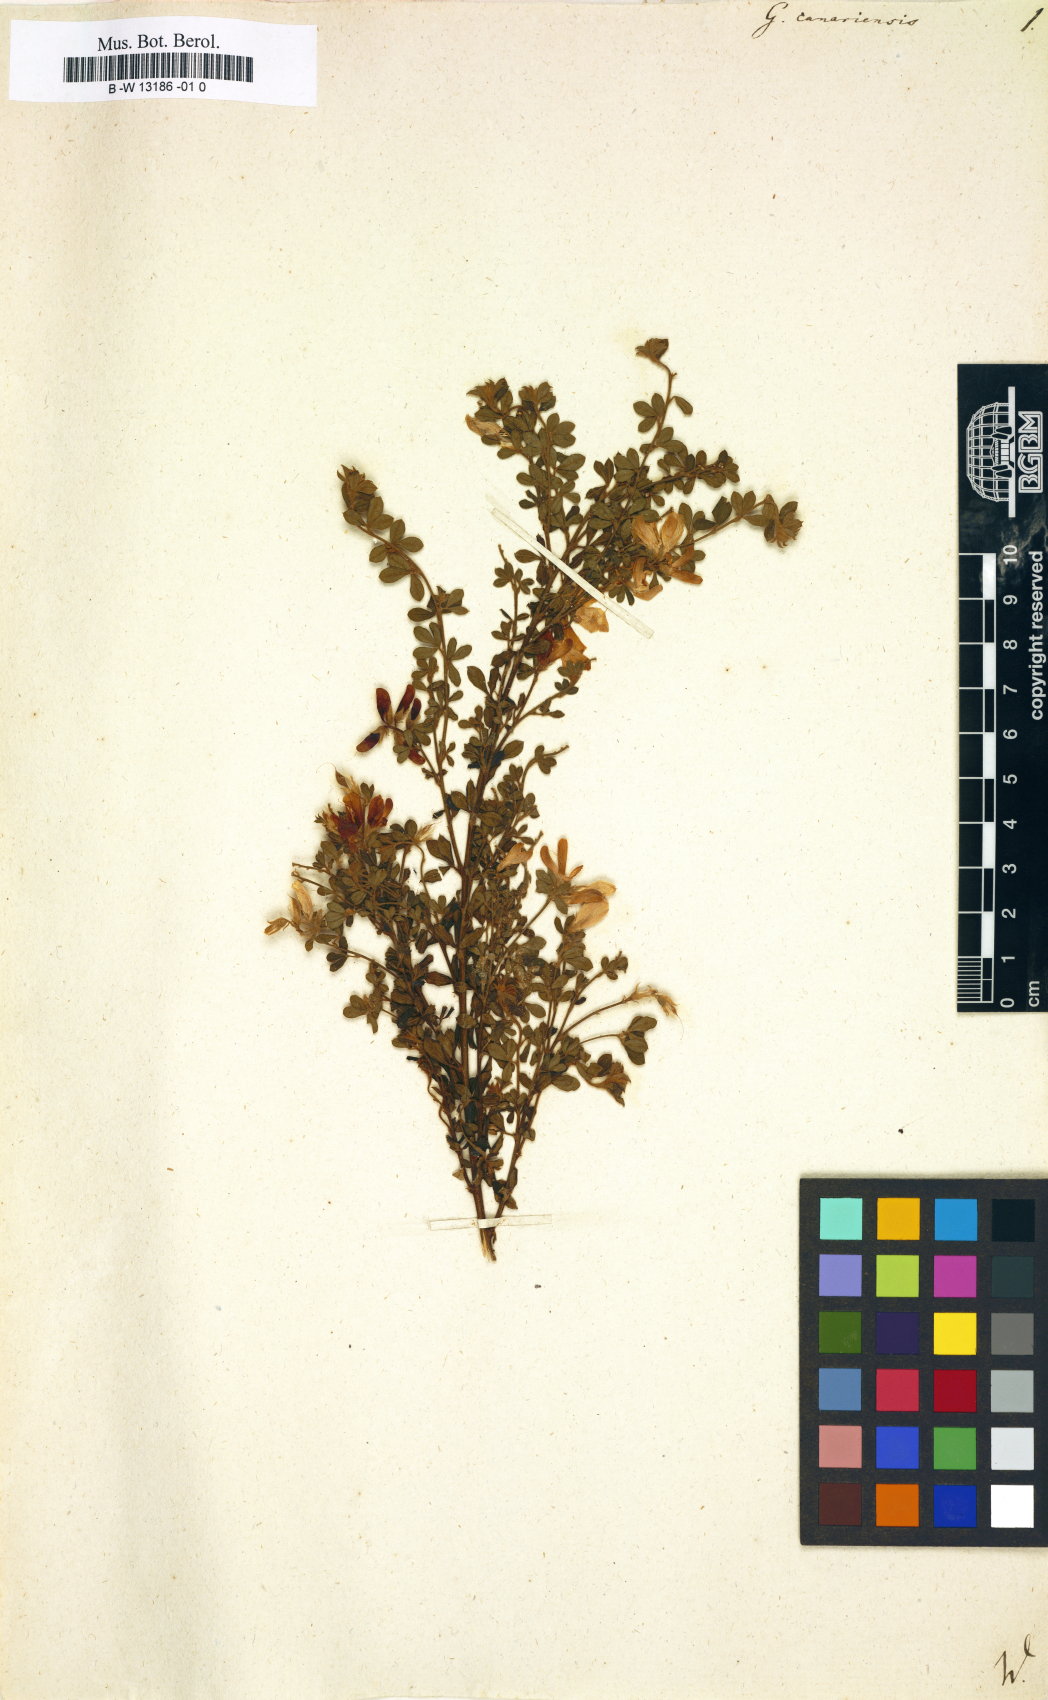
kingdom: Plantae
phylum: Tracheophyta
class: Magnoliopsida
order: Fabales
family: Fabaceae
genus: Genista
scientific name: Genista canariensis
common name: Canary broom
